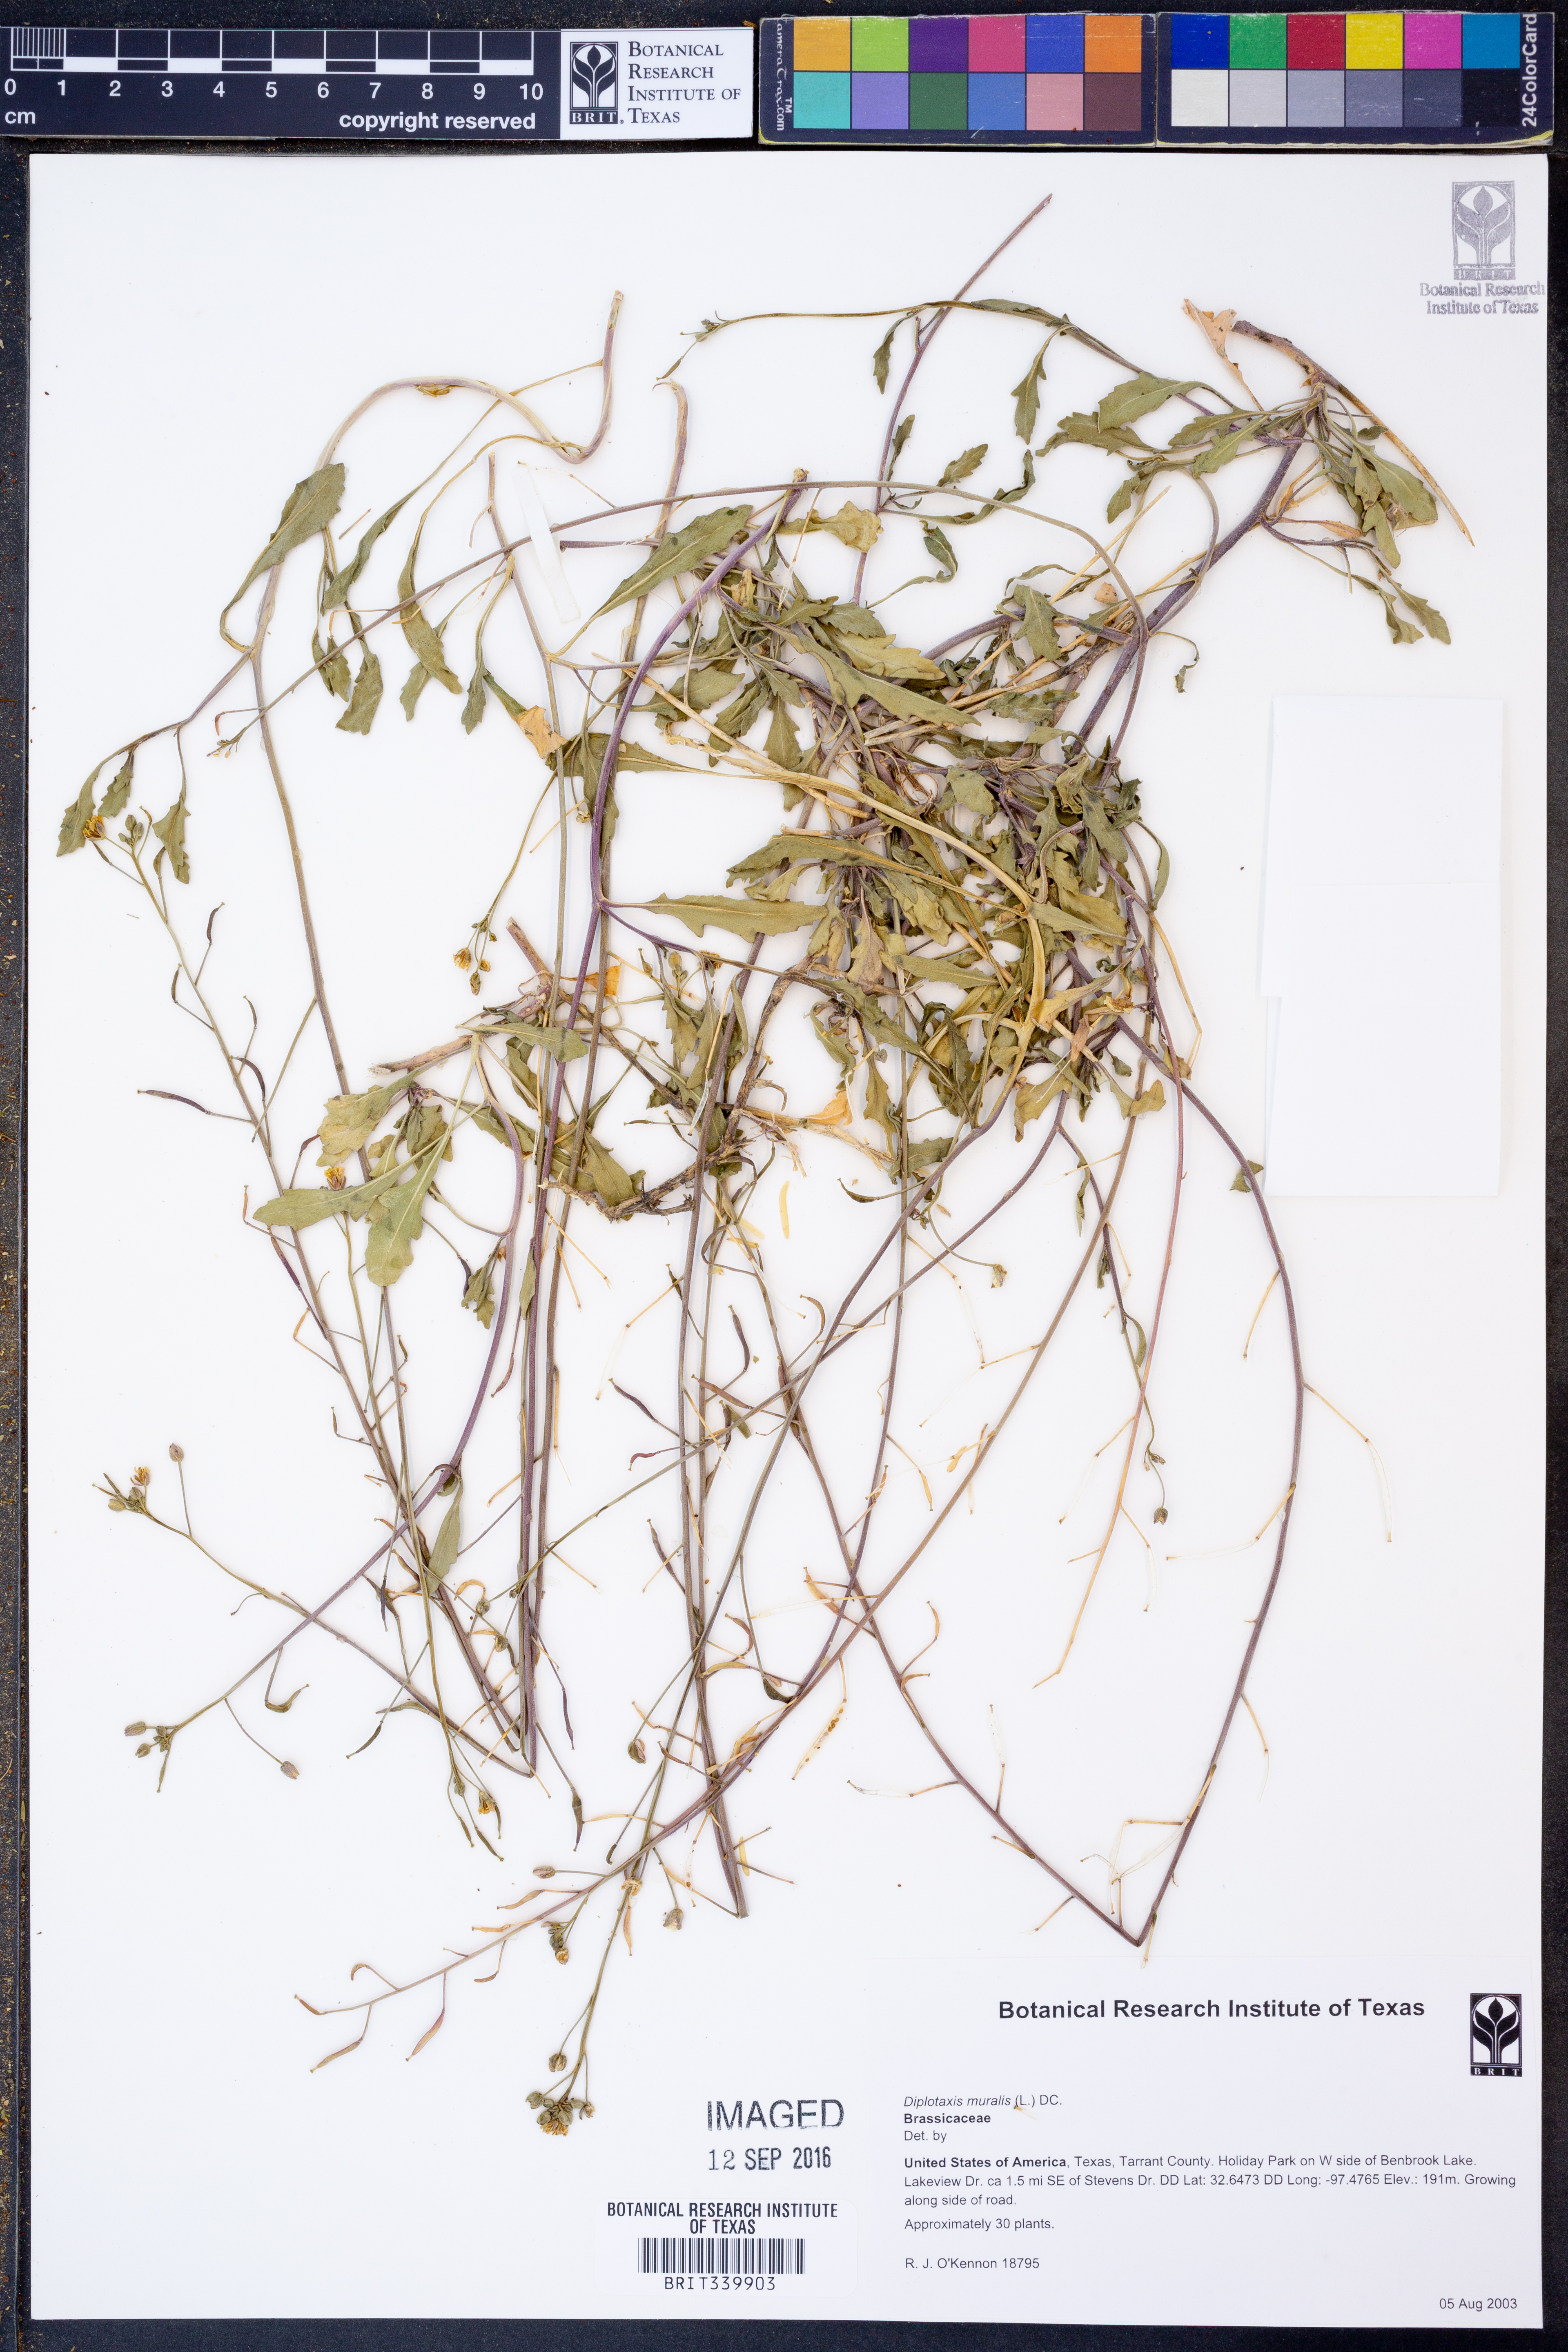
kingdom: Plantae
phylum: Tracheophyta
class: Magnoliopsida
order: Brassicales
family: Brassicaceae
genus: Diplotaxis
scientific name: Diplotaxis muralis
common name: Annual wall-rocket
